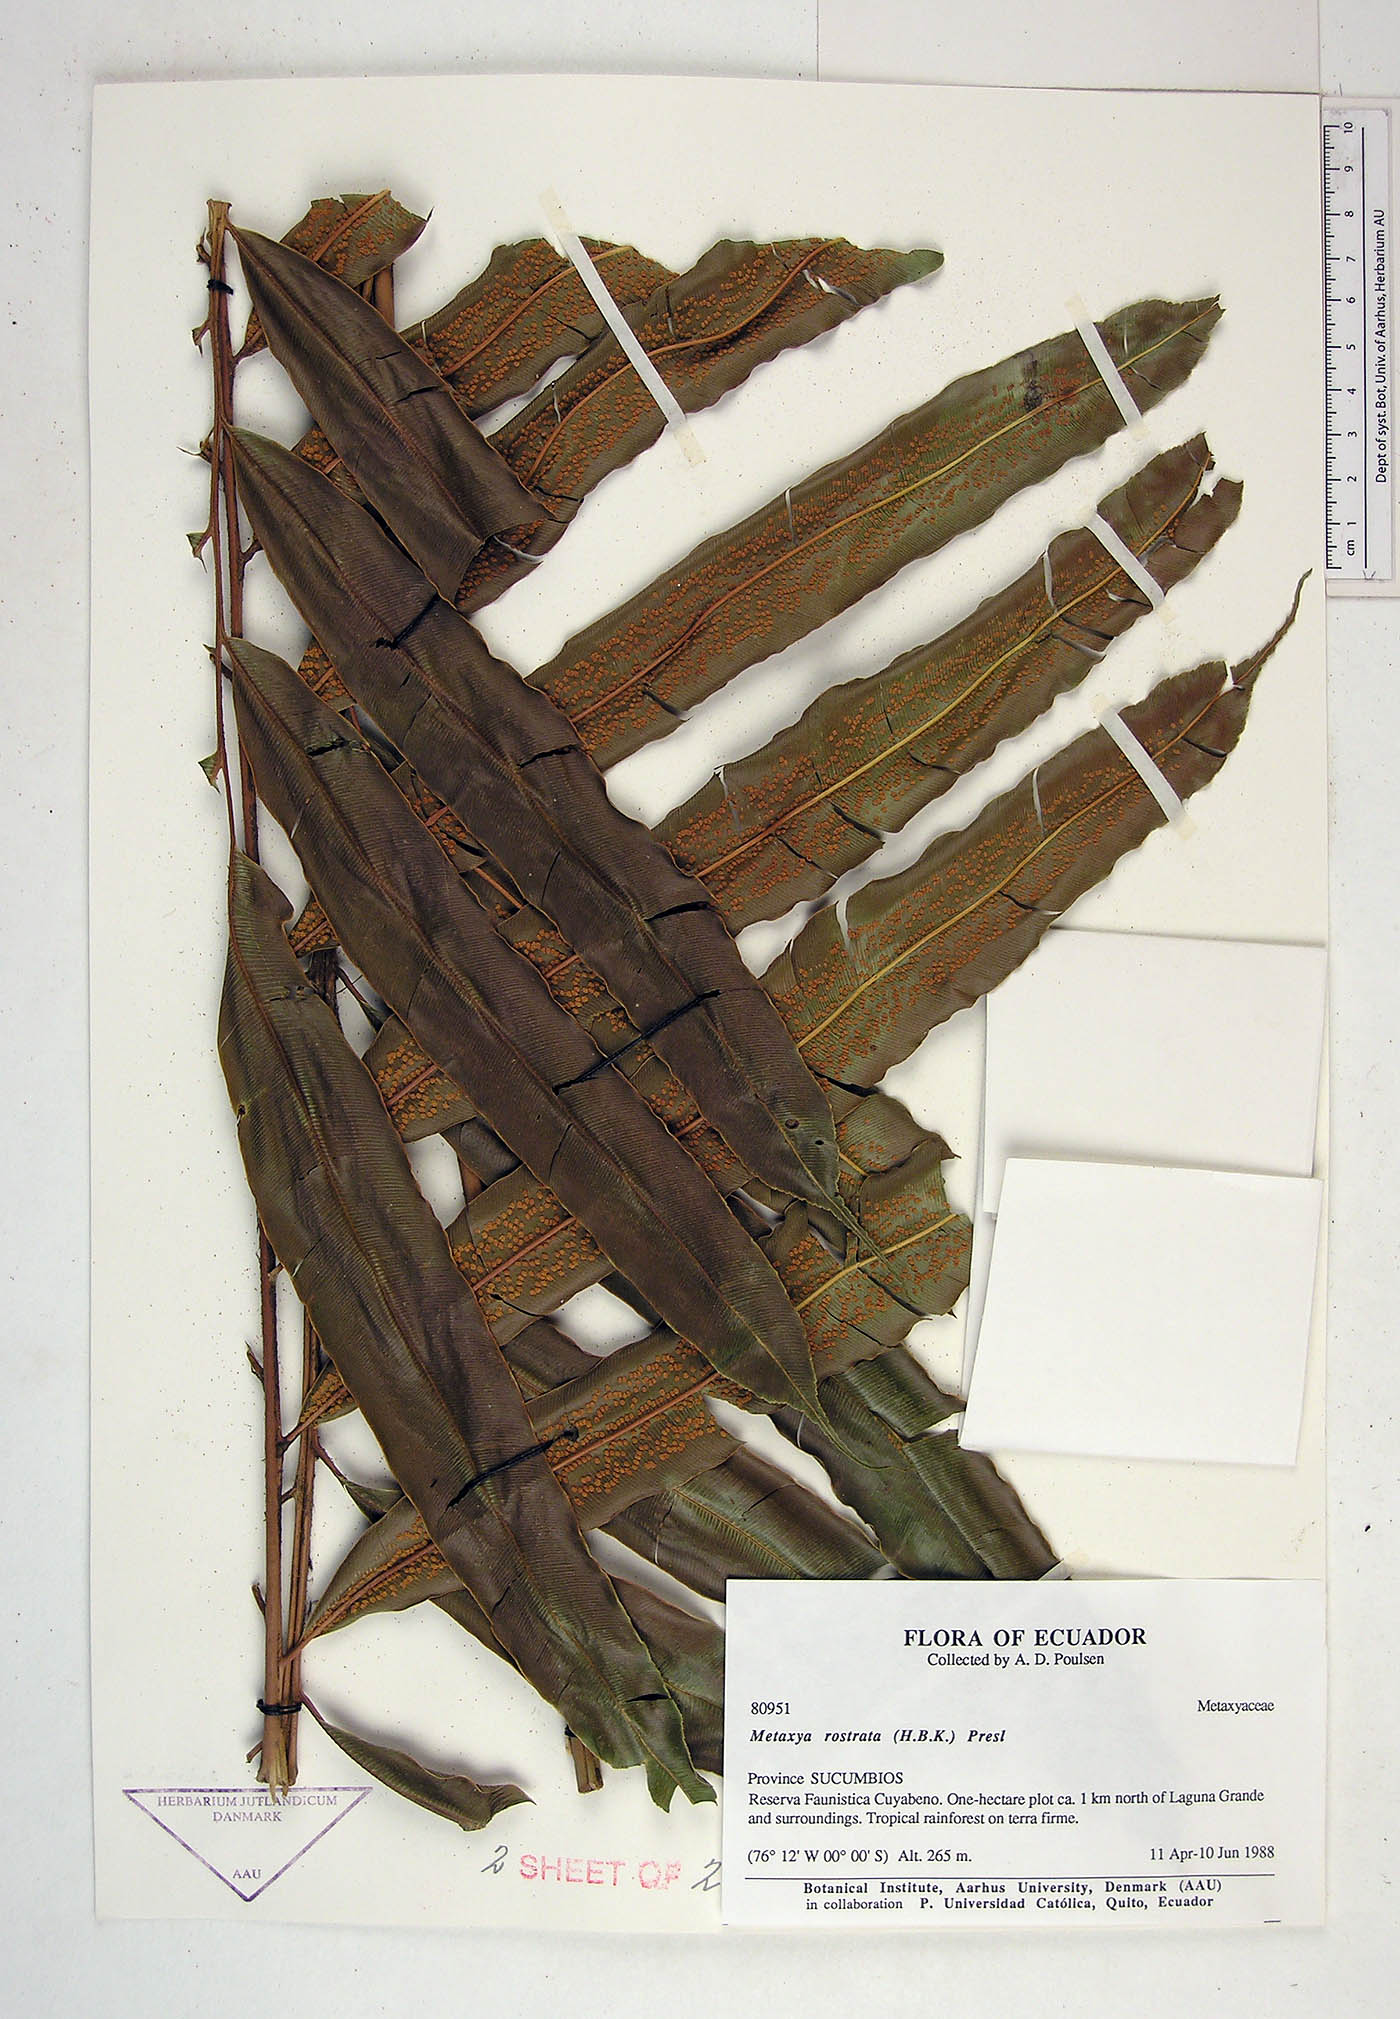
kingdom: Plantae
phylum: Tracheophyta
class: Polypodiopsida
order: Cyatheales
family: Metaxyaceae
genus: Metaxya
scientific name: Metaxya parkeri
